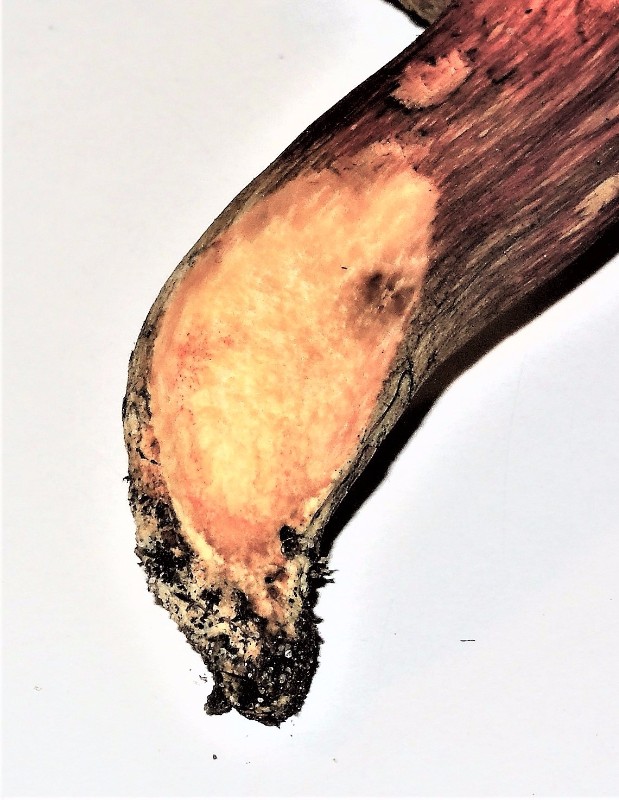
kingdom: Fungi
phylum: Basidiomycota
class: Agaricomycetes
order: Boletales
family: Boletaceae
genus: Hortiboletus
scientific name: Hortiboletus engelii
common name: fersken-rørhat
